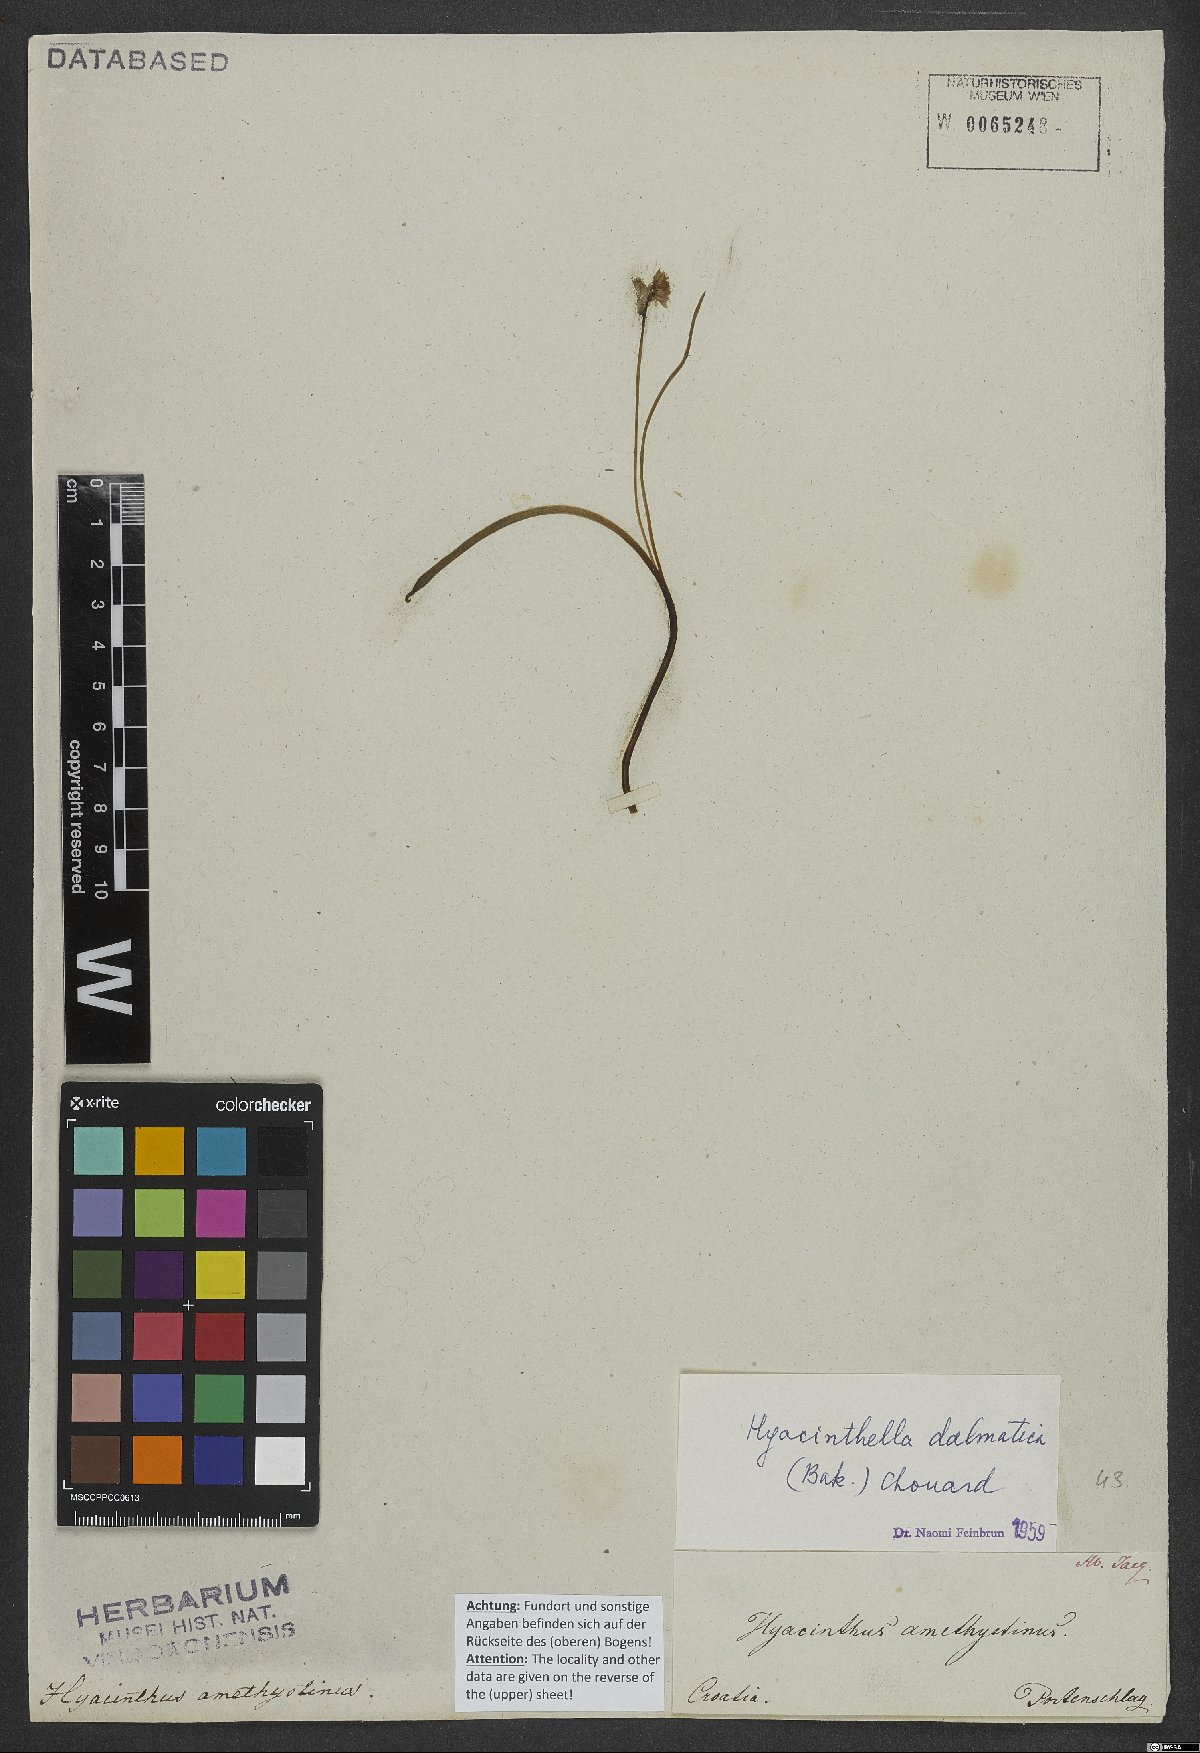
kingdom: Plantae
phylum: Tracheophyta
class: Liliopsida
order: Asparagales
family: Asparagaceae
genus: Hyacinthella
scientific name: Hyacinthella dalmatica
